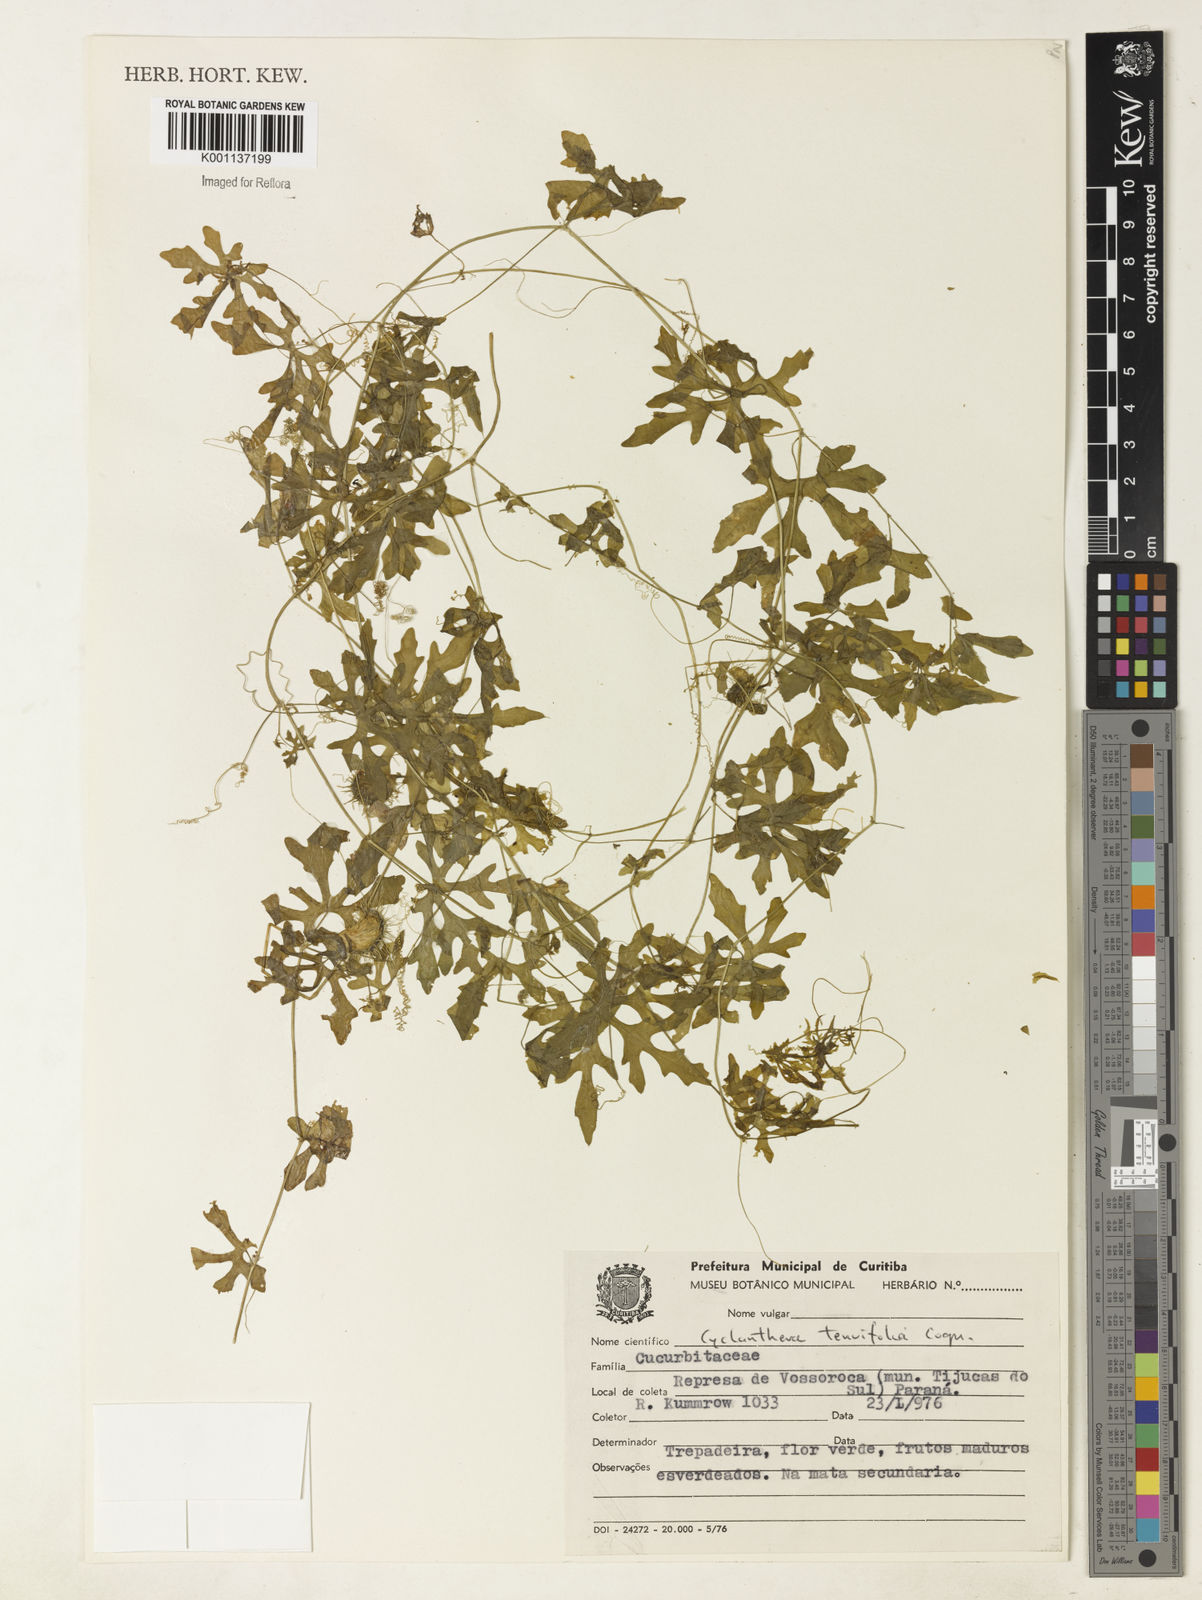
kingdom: Plantae
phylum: Tracheophyta
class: Magnoliopsida
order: Cucurbitales
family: Cucurbitaceae
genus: Cyclanthera
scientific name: Cyclanthera tenuifolia
